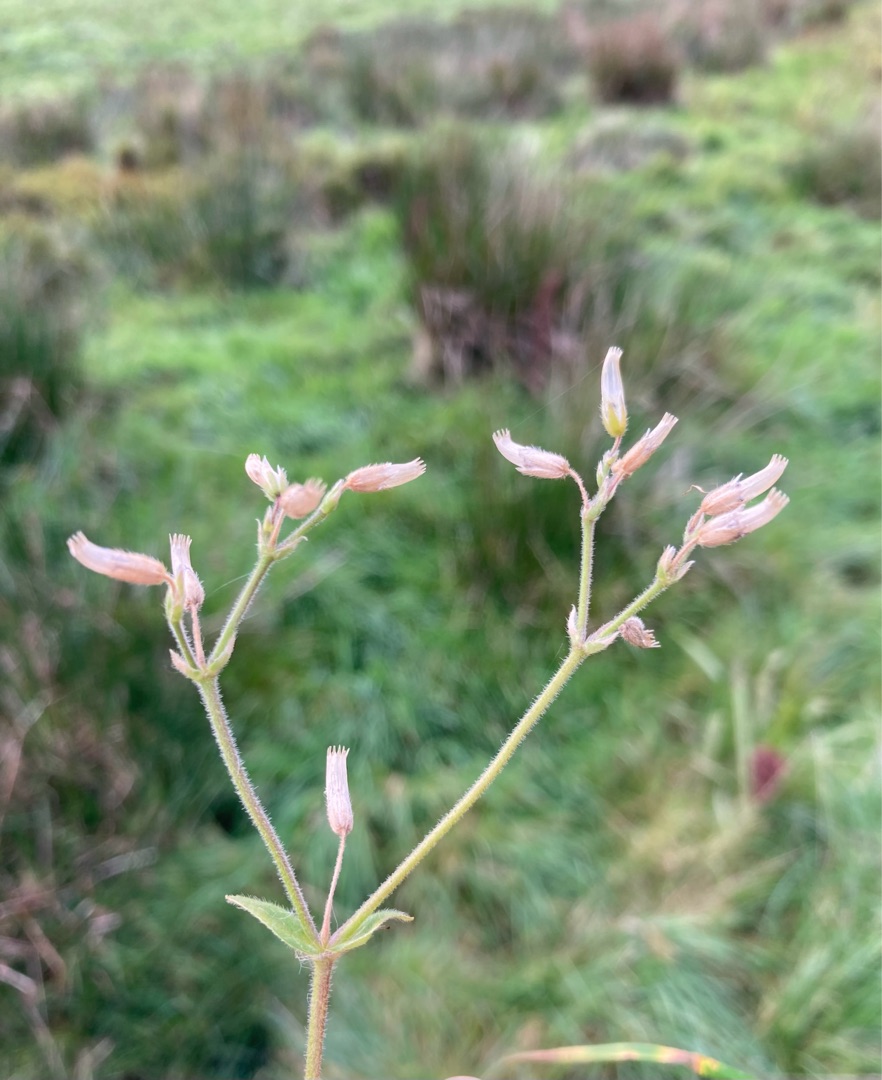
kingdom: Plantae
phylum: Tracheophyta
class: Magnoliopsida
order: Caryophyllales
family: Caryophyllaceae
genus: Cerastium
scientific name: Cerastium fontanum
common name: Almindelig hønsetarm
